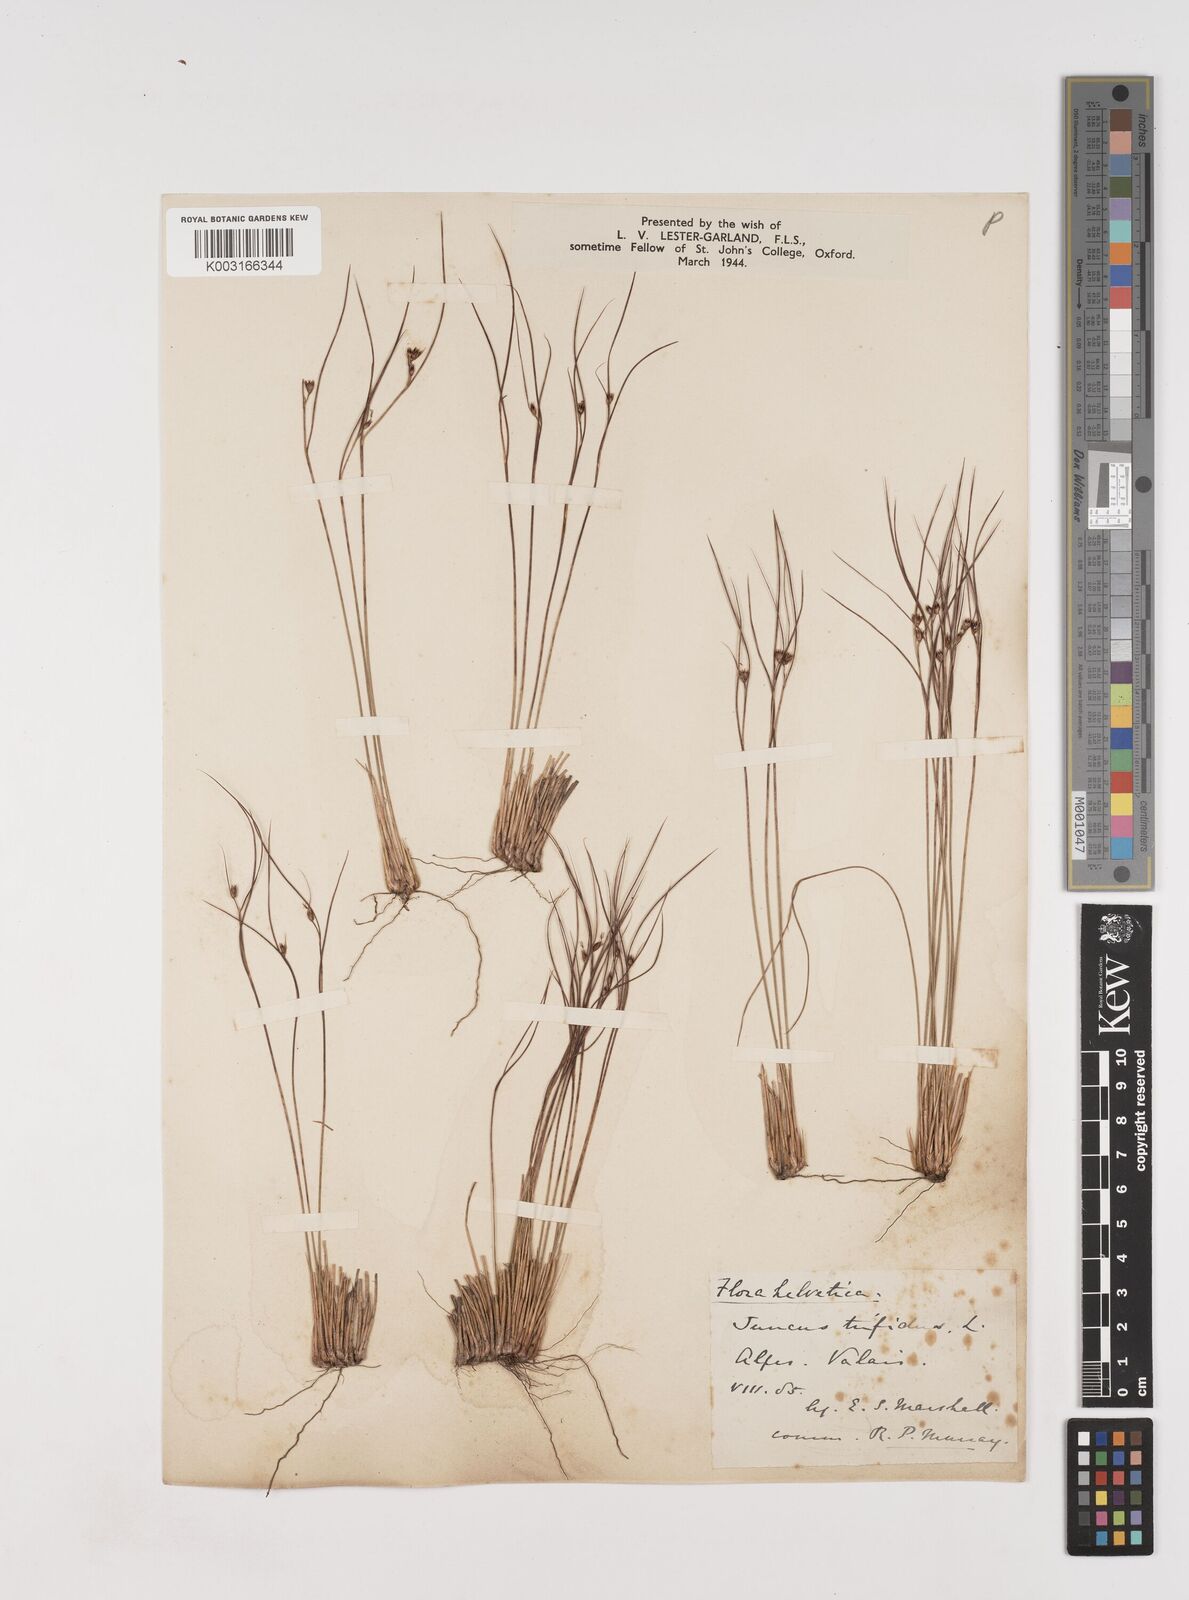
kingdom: Plantae
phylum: Tracheophyta
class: Liliopsida
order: Poales
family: Juncaceae
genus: Oreojuncus
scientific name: Oreojuncus trifidus
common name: Highland rush
